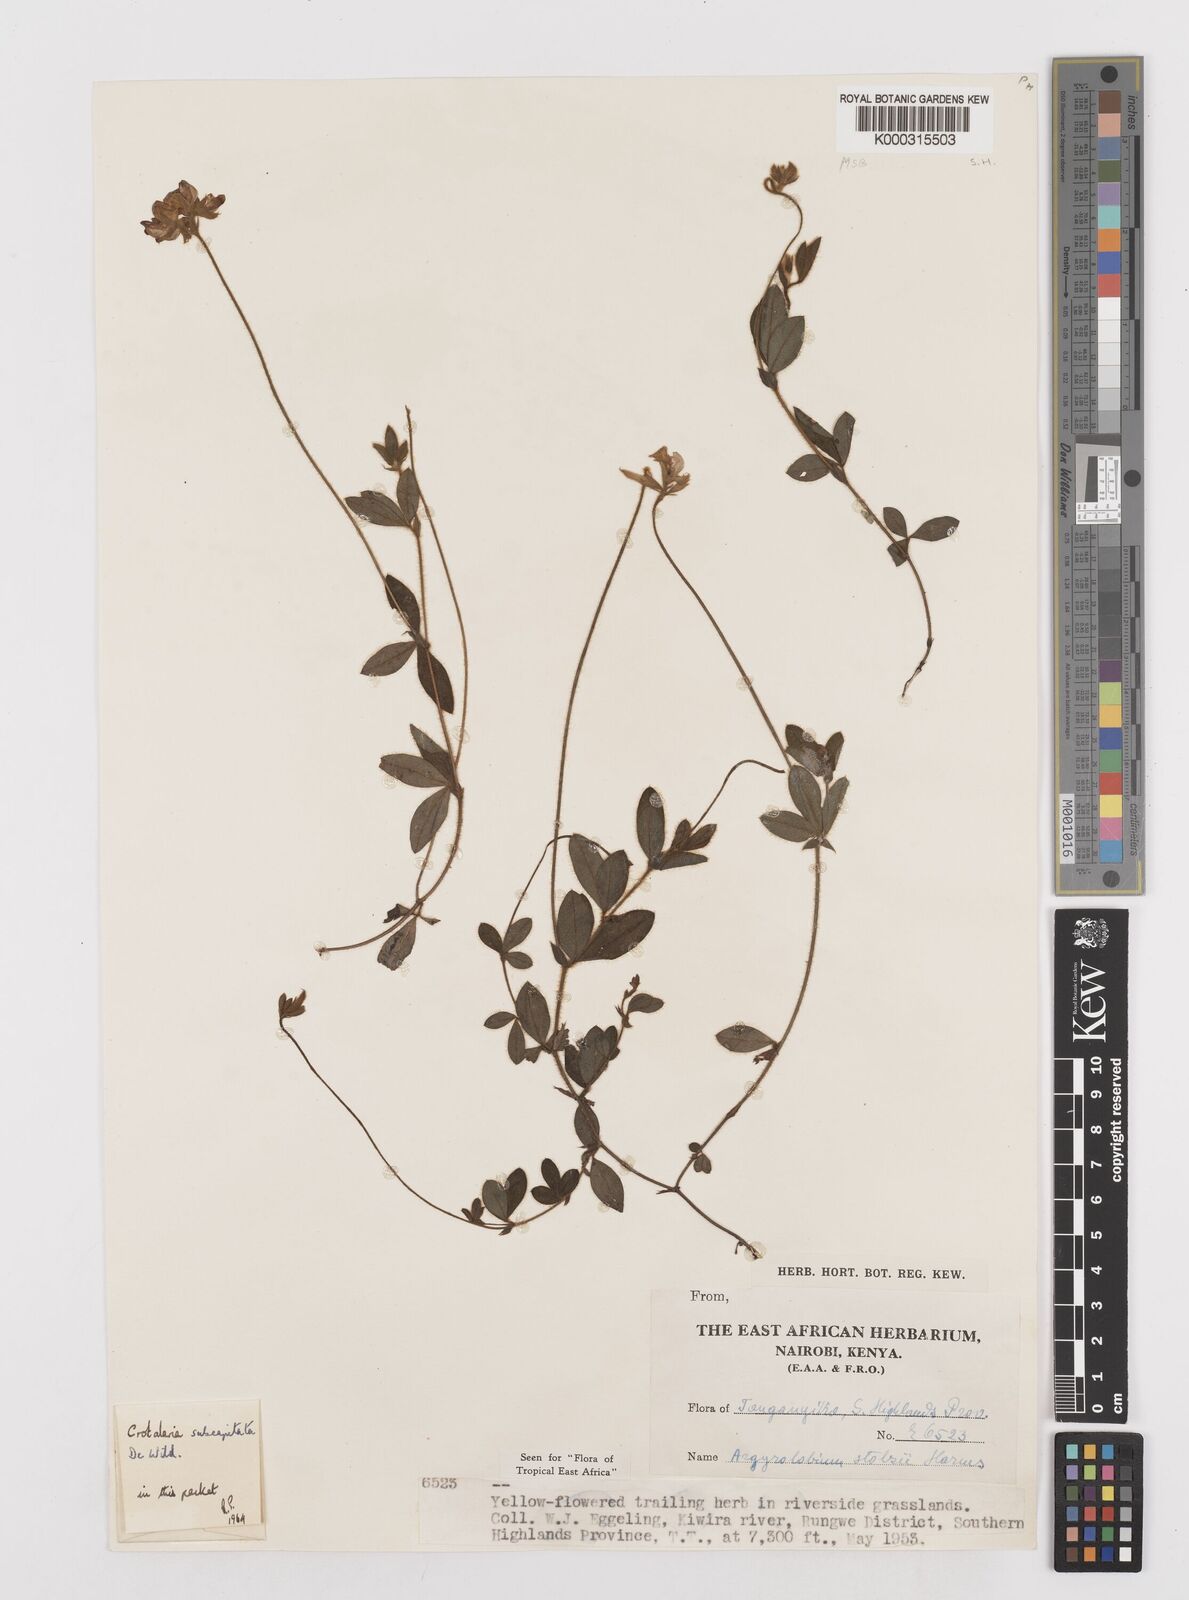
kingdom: Plantae
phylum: Tracheophyta
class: Magnoliopsida
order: Fabales
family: Fabaceae
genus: Argyrolobium
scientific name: Argyrolobium stolzii
